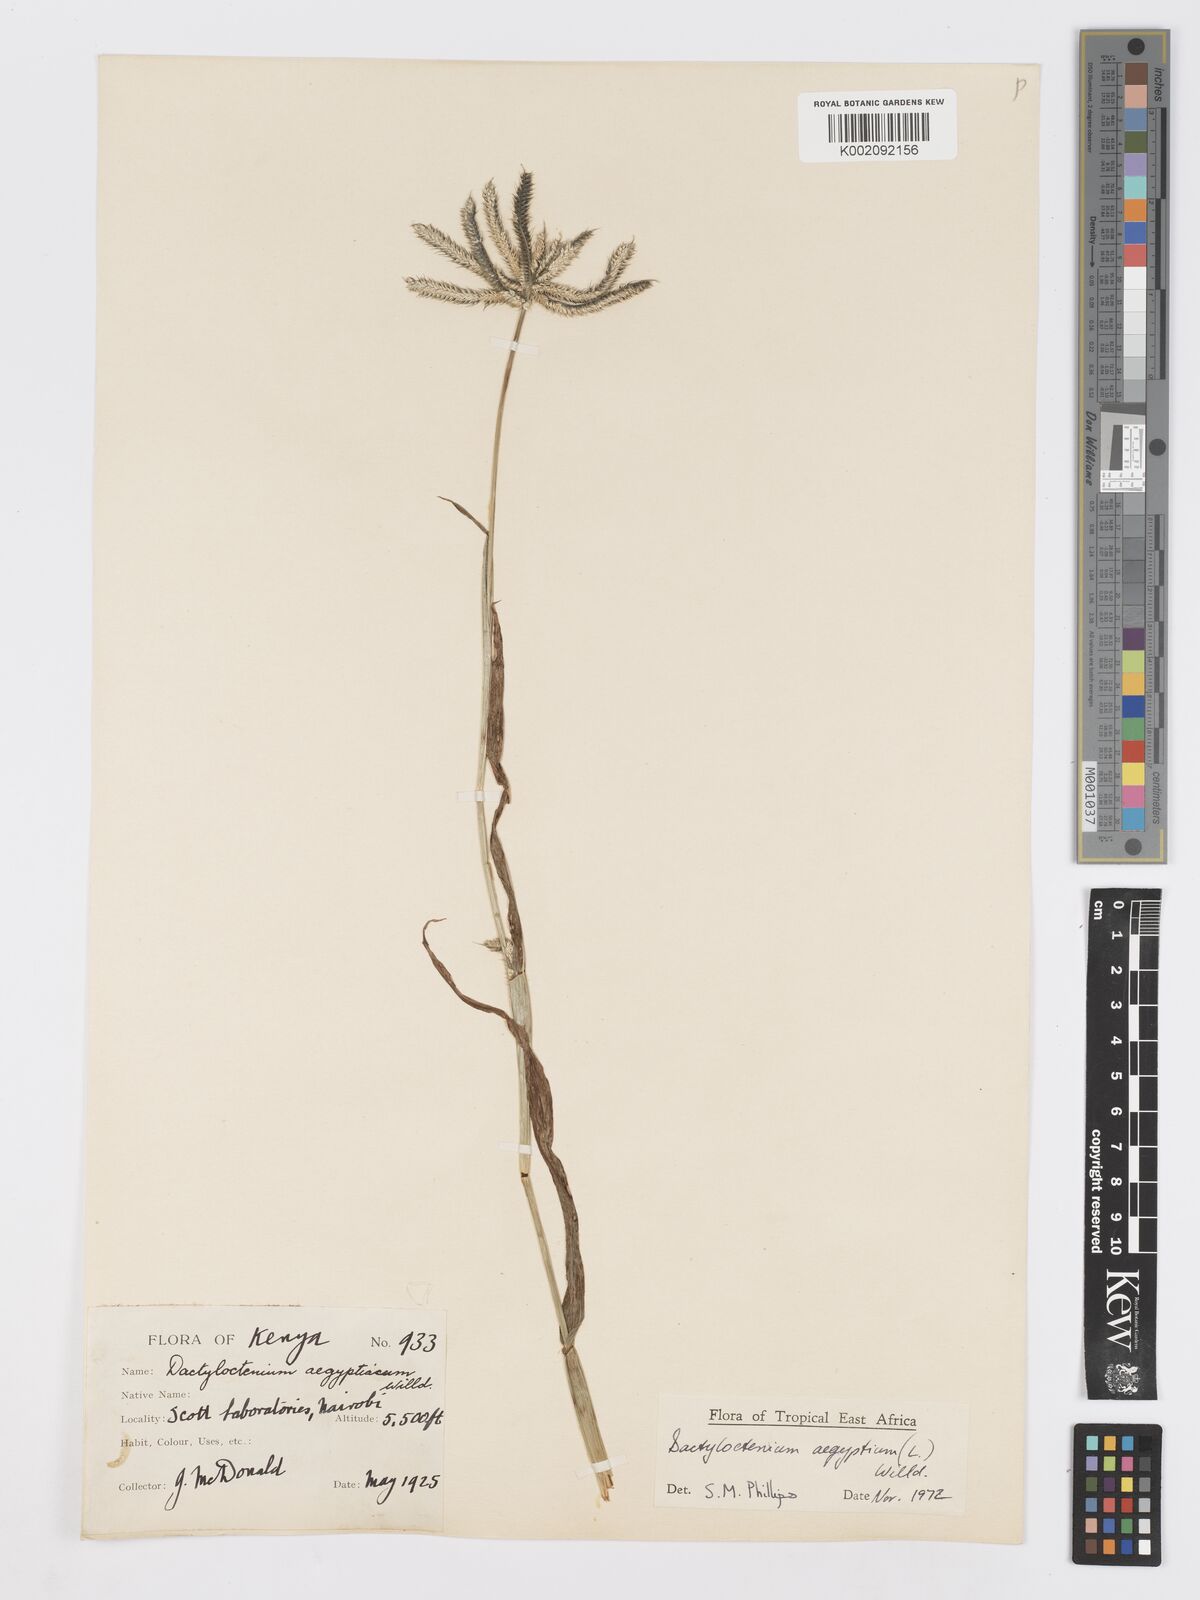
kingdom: Plantae
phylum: Tracheophyta
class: Liliopsida
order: Poales
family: Poaceae
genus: Dactyloctenium
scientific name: Dactyloctenium aegyptium
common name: Egyptian grass
